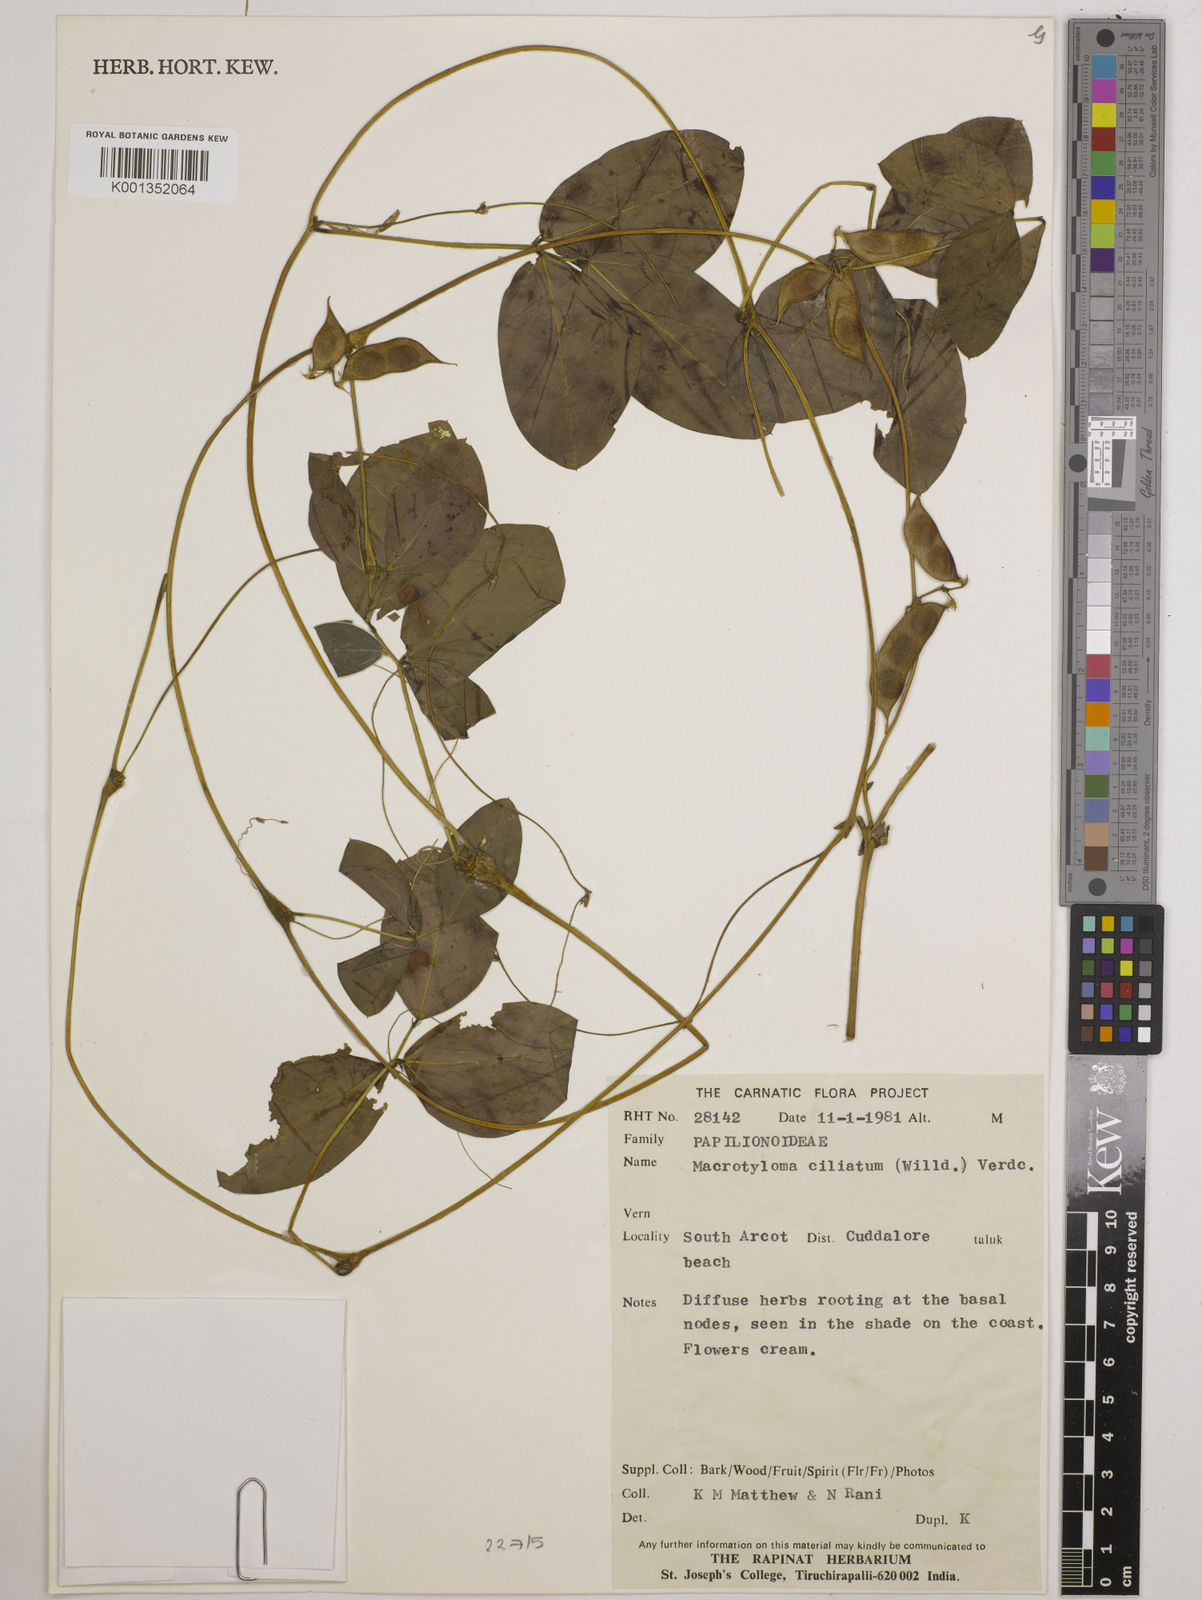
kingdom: Plantae
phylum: Tracheophyta
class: Magnoliopsida
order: Fabales
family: Fabaceae
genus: Macrotyloma
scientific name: Macrotyloma ciliatum
